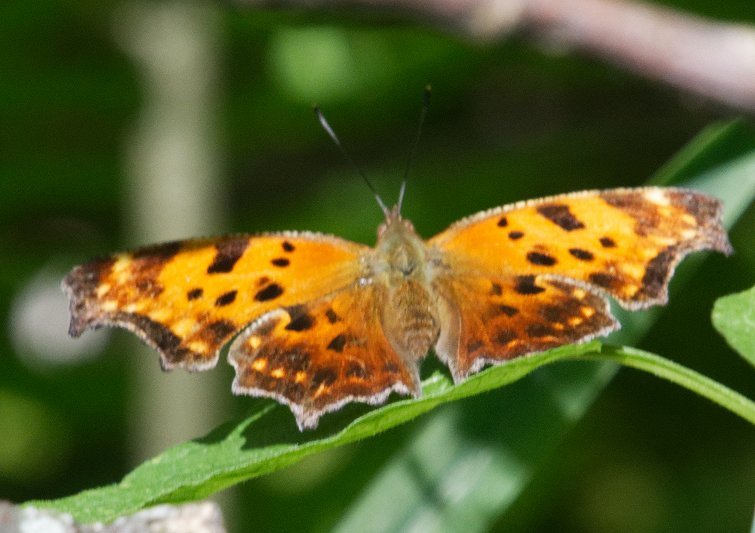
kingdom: Animalia
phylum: Arthropoda
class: Insecta
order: Lepidoptera
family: Nymphalidae
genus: Polygonia
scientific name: Polygonia comma
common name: Eastern Comma
